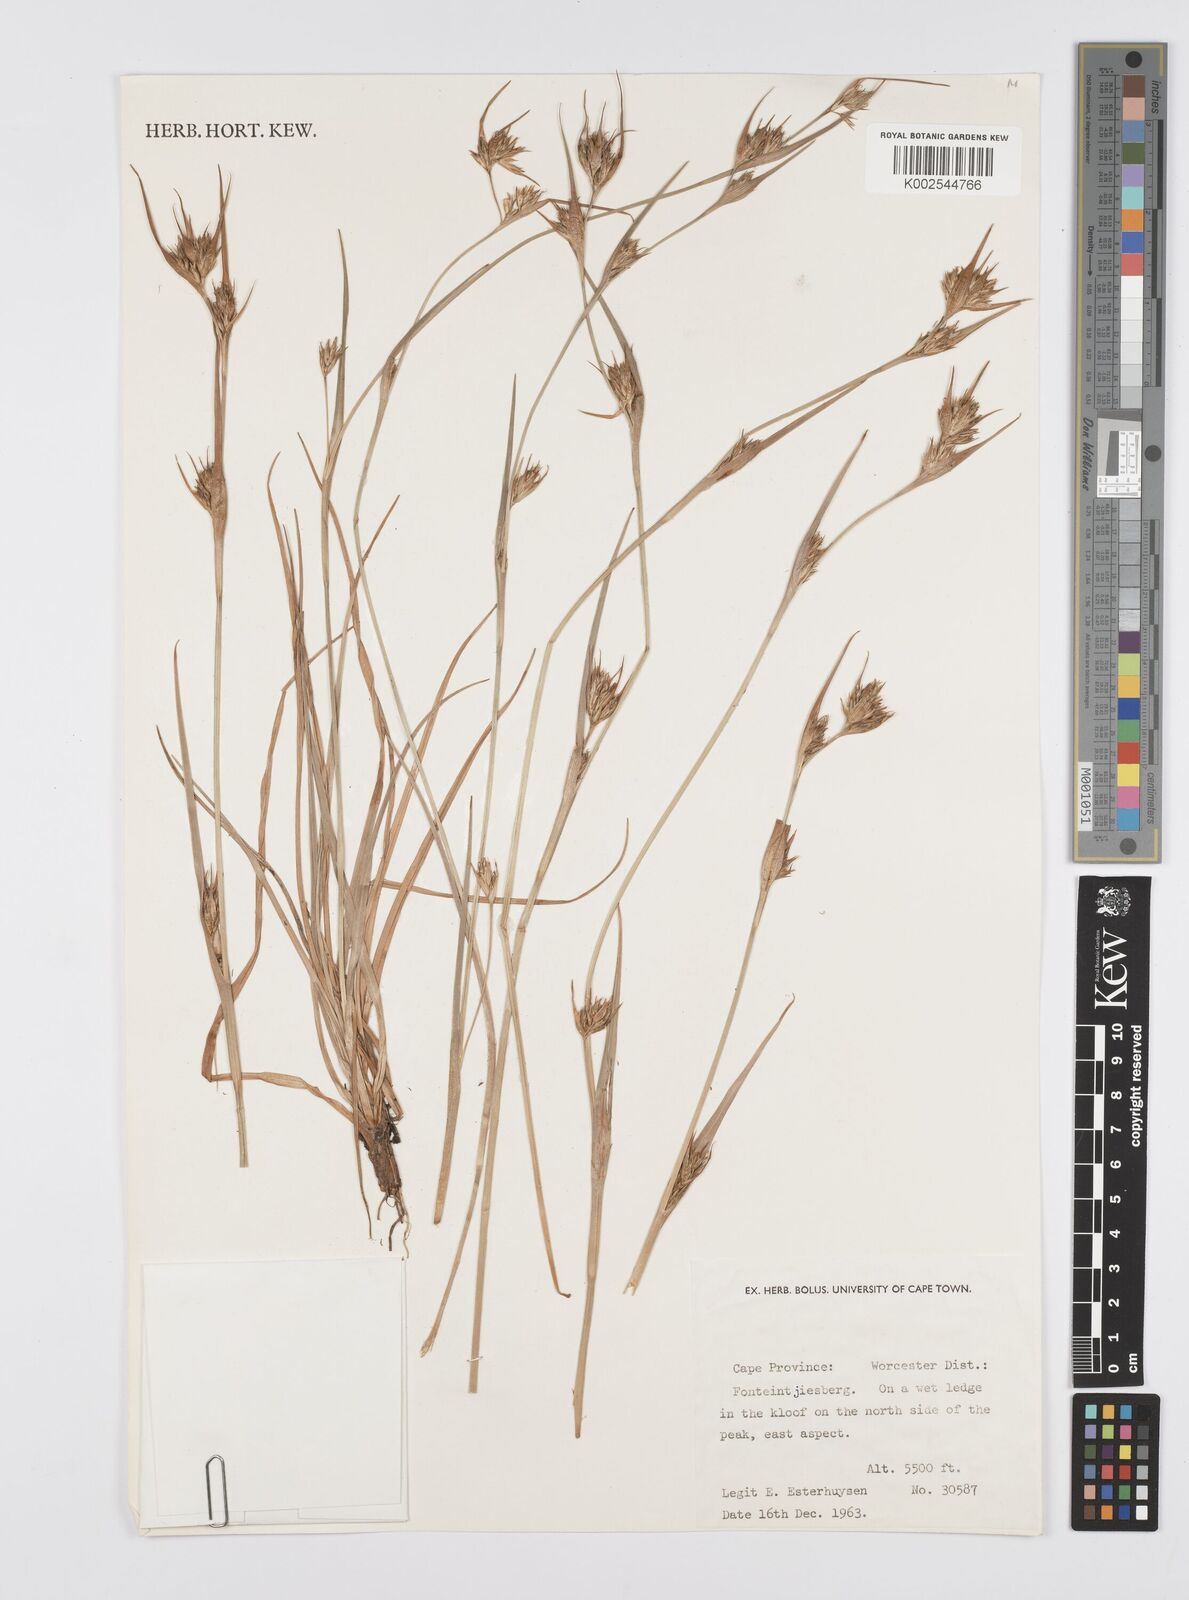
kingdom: Plantae
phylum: Tracheophyta
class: Liliopsida
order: Poales
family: Cyperaceae
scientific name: Cyperaceae
